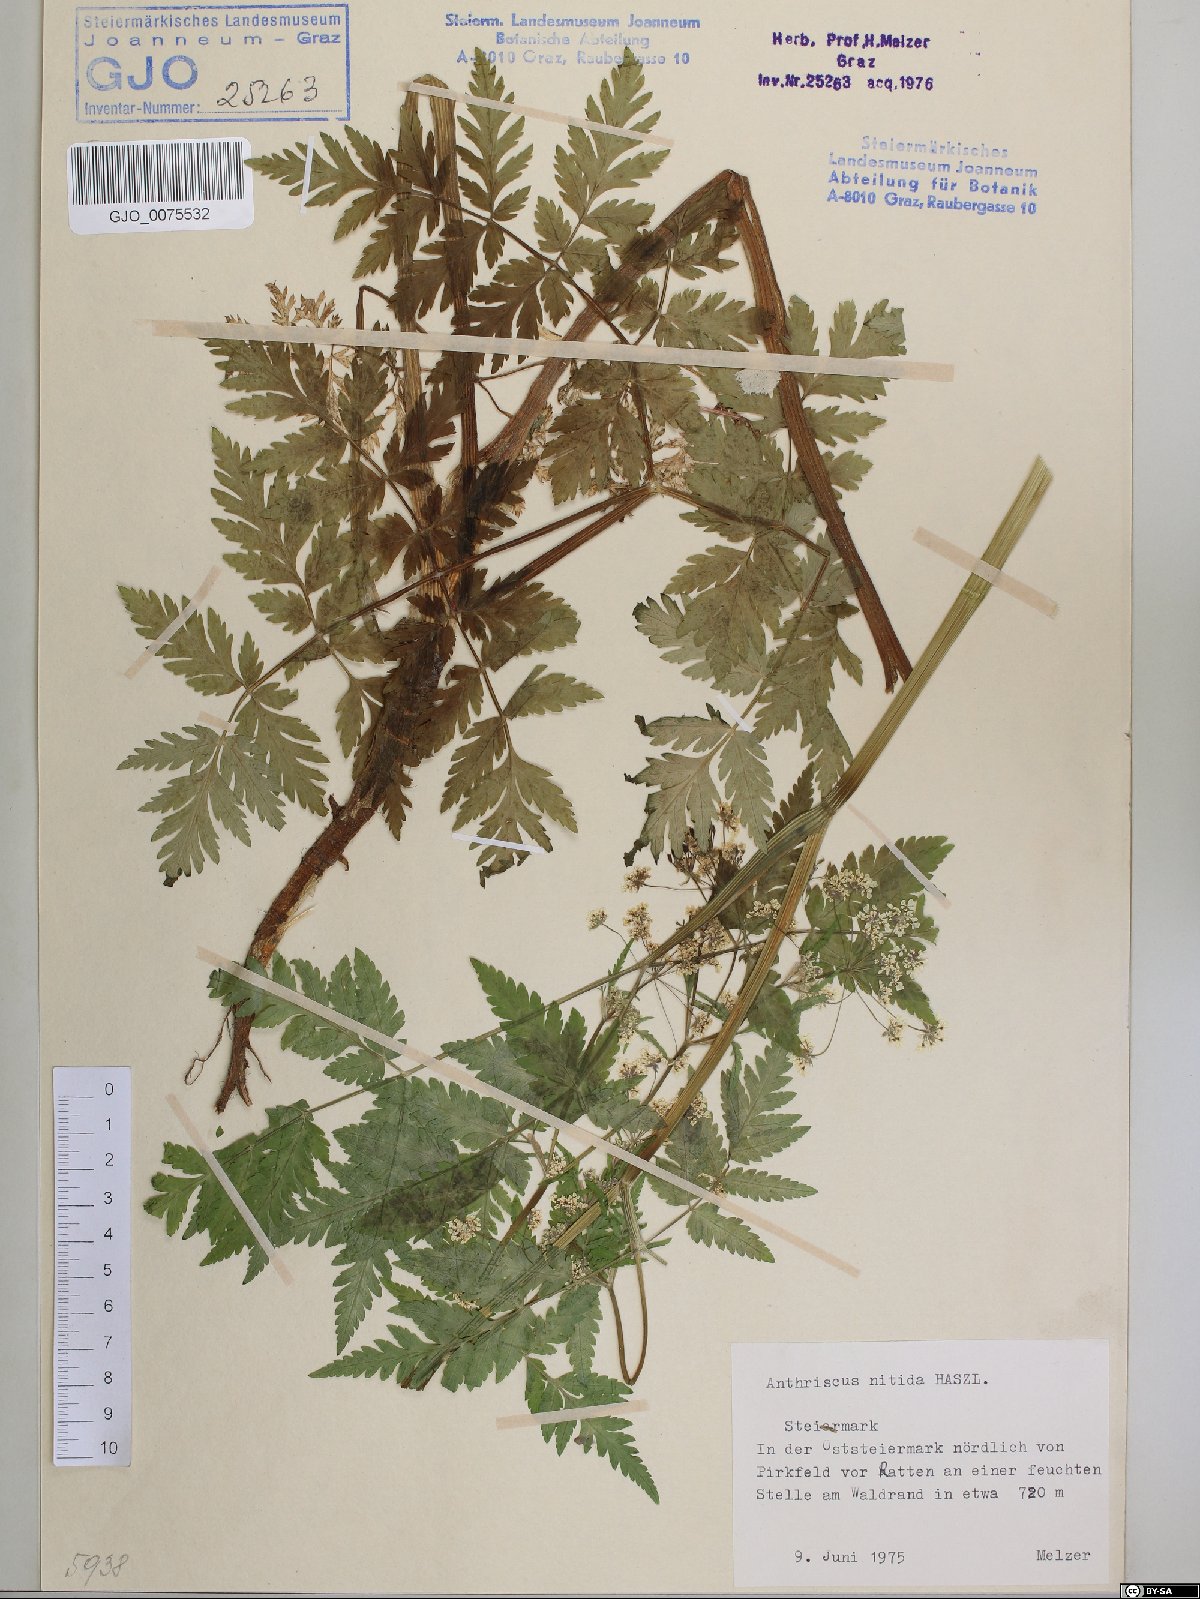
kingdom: Plantae
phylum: Tracheophyta
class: Magnoliopsida
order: Apiales
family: Apiaceae
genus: Anthriscus
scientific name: Anthriscus nitida
